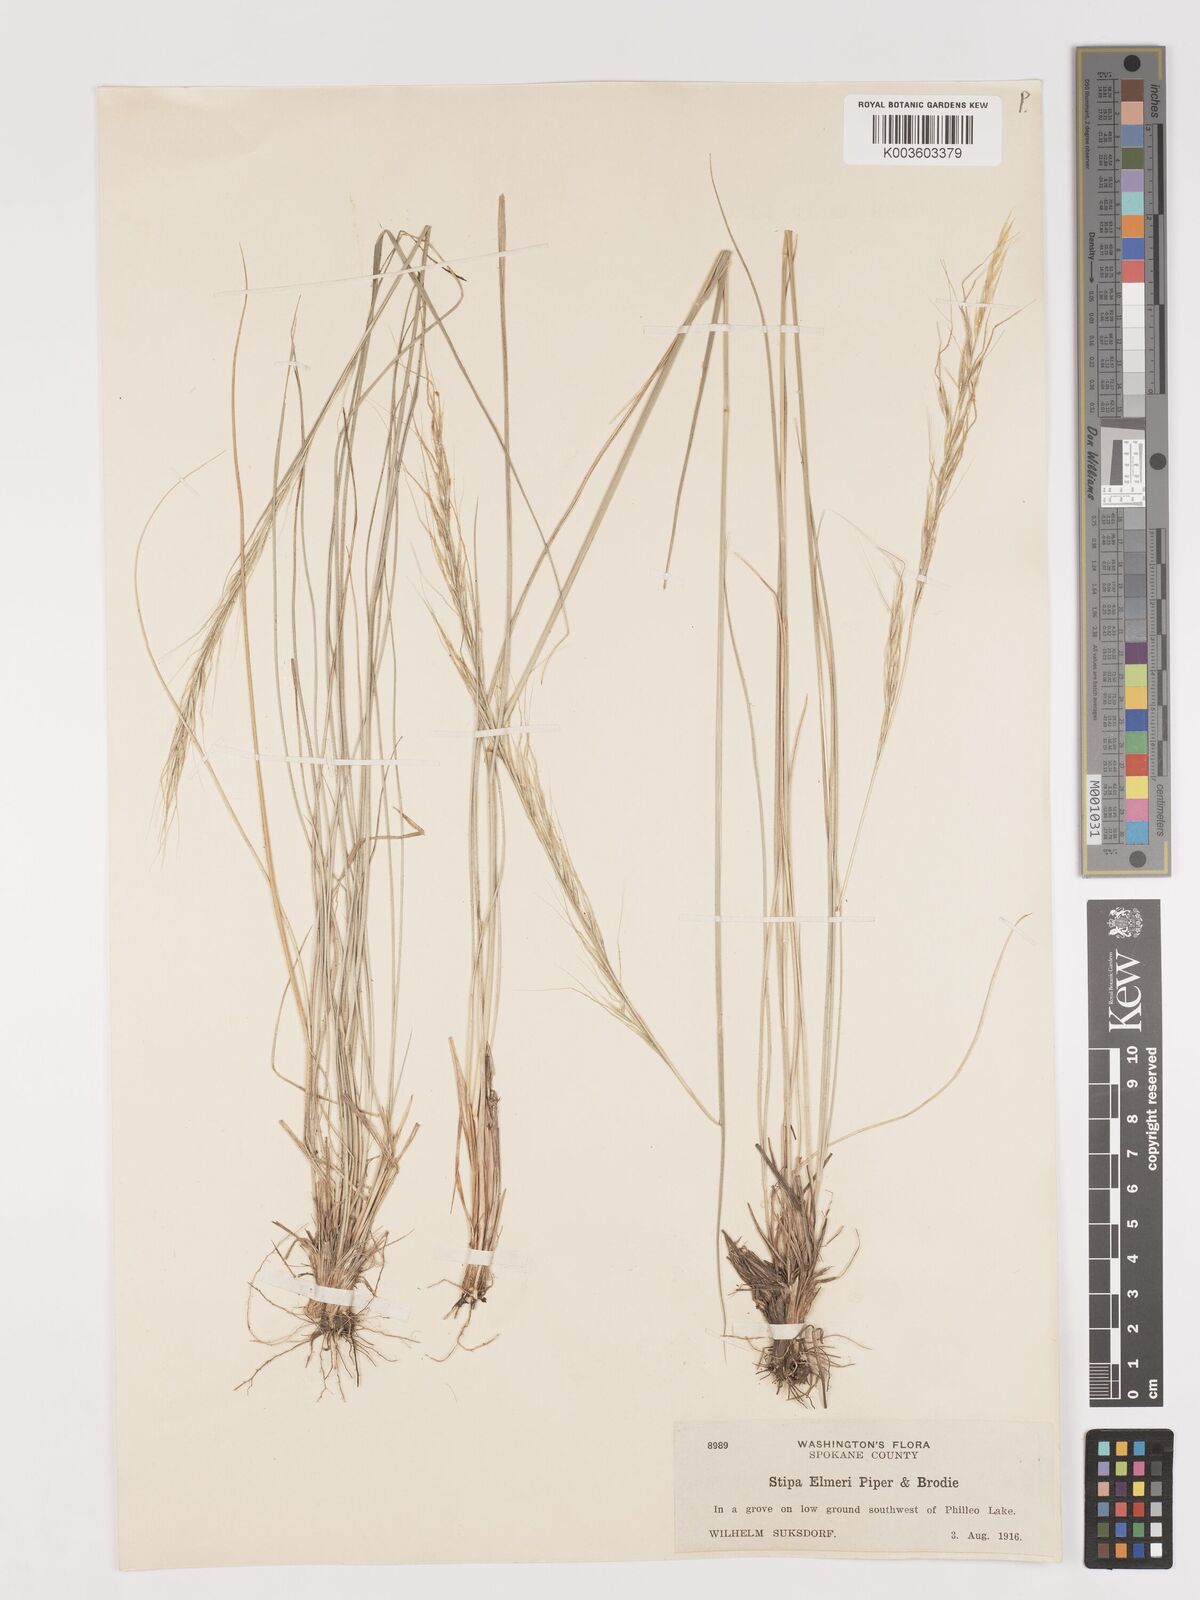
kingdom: Plantae
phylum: Tracheophyta
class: Liliopsida
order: Poales
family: Poaceae
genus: Eriocoma
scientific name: Eriocoma thurberiana
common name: Thurber's needlegrass
